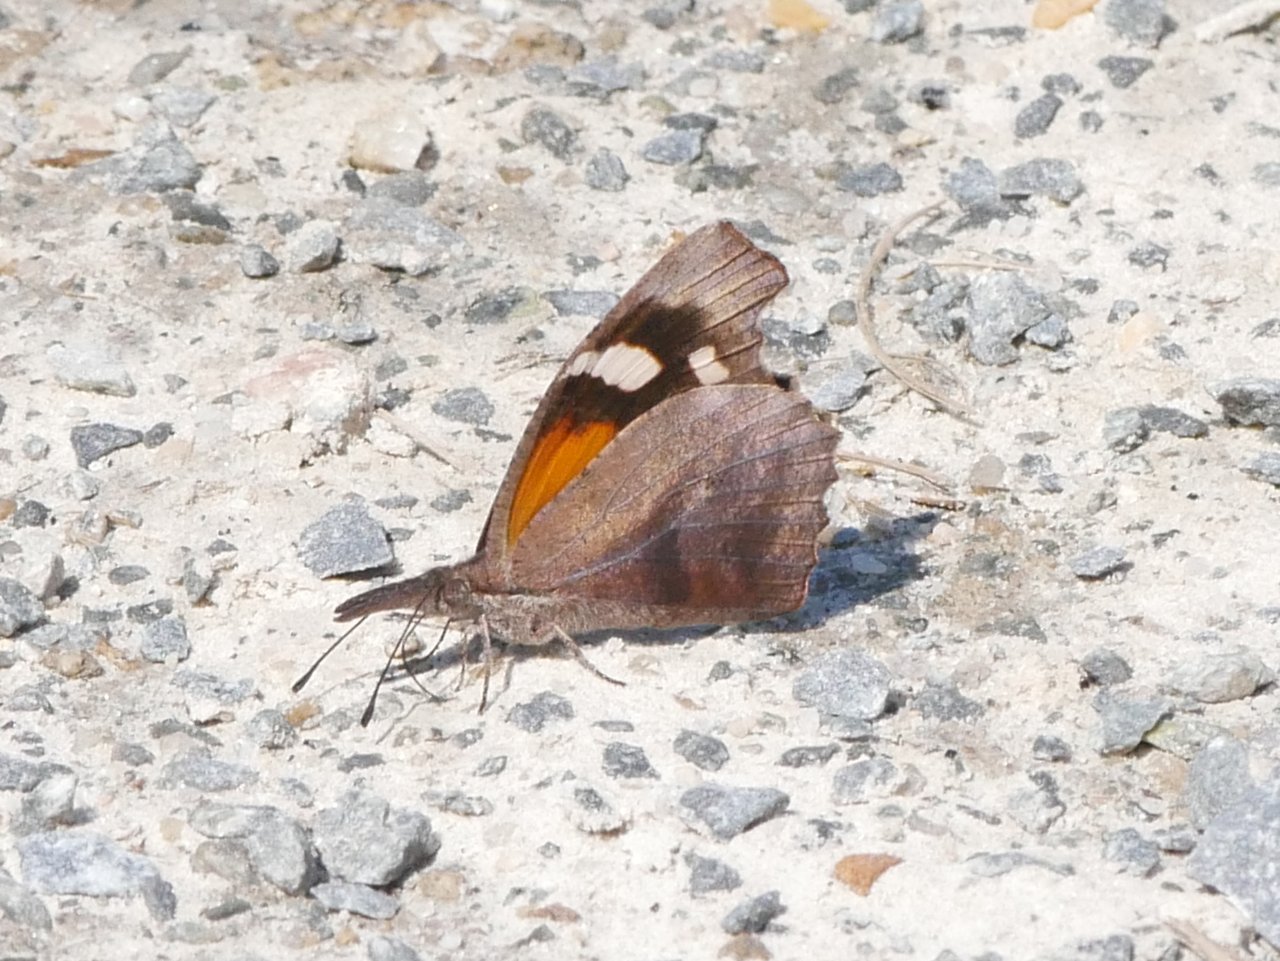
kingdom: Animalia
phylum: Arthropoda
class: Insecta
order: Lepidoptera
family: Nymphalidae
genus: Libytheana
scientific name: Libytheana carinenta
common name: American Snout
